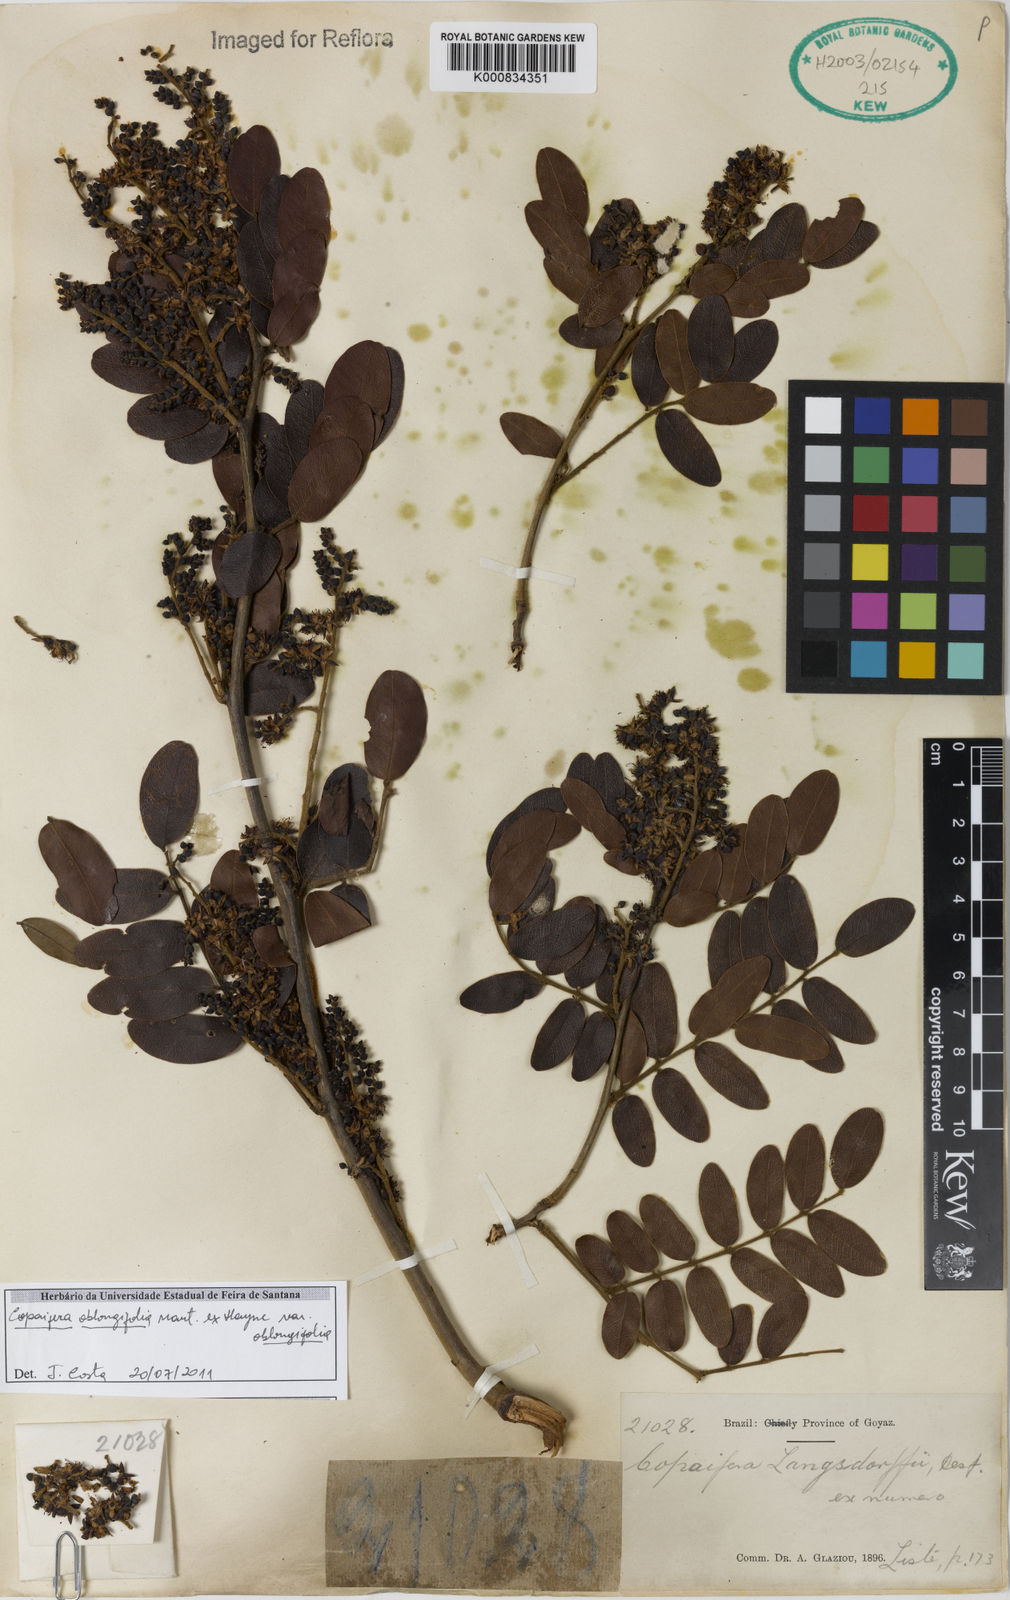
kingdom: Plantae
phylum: Tracheophyta
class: Magnoliopsida
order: Fabales
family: Fabaceae
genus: Copaifera
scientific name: Copaifera oblongifolia
